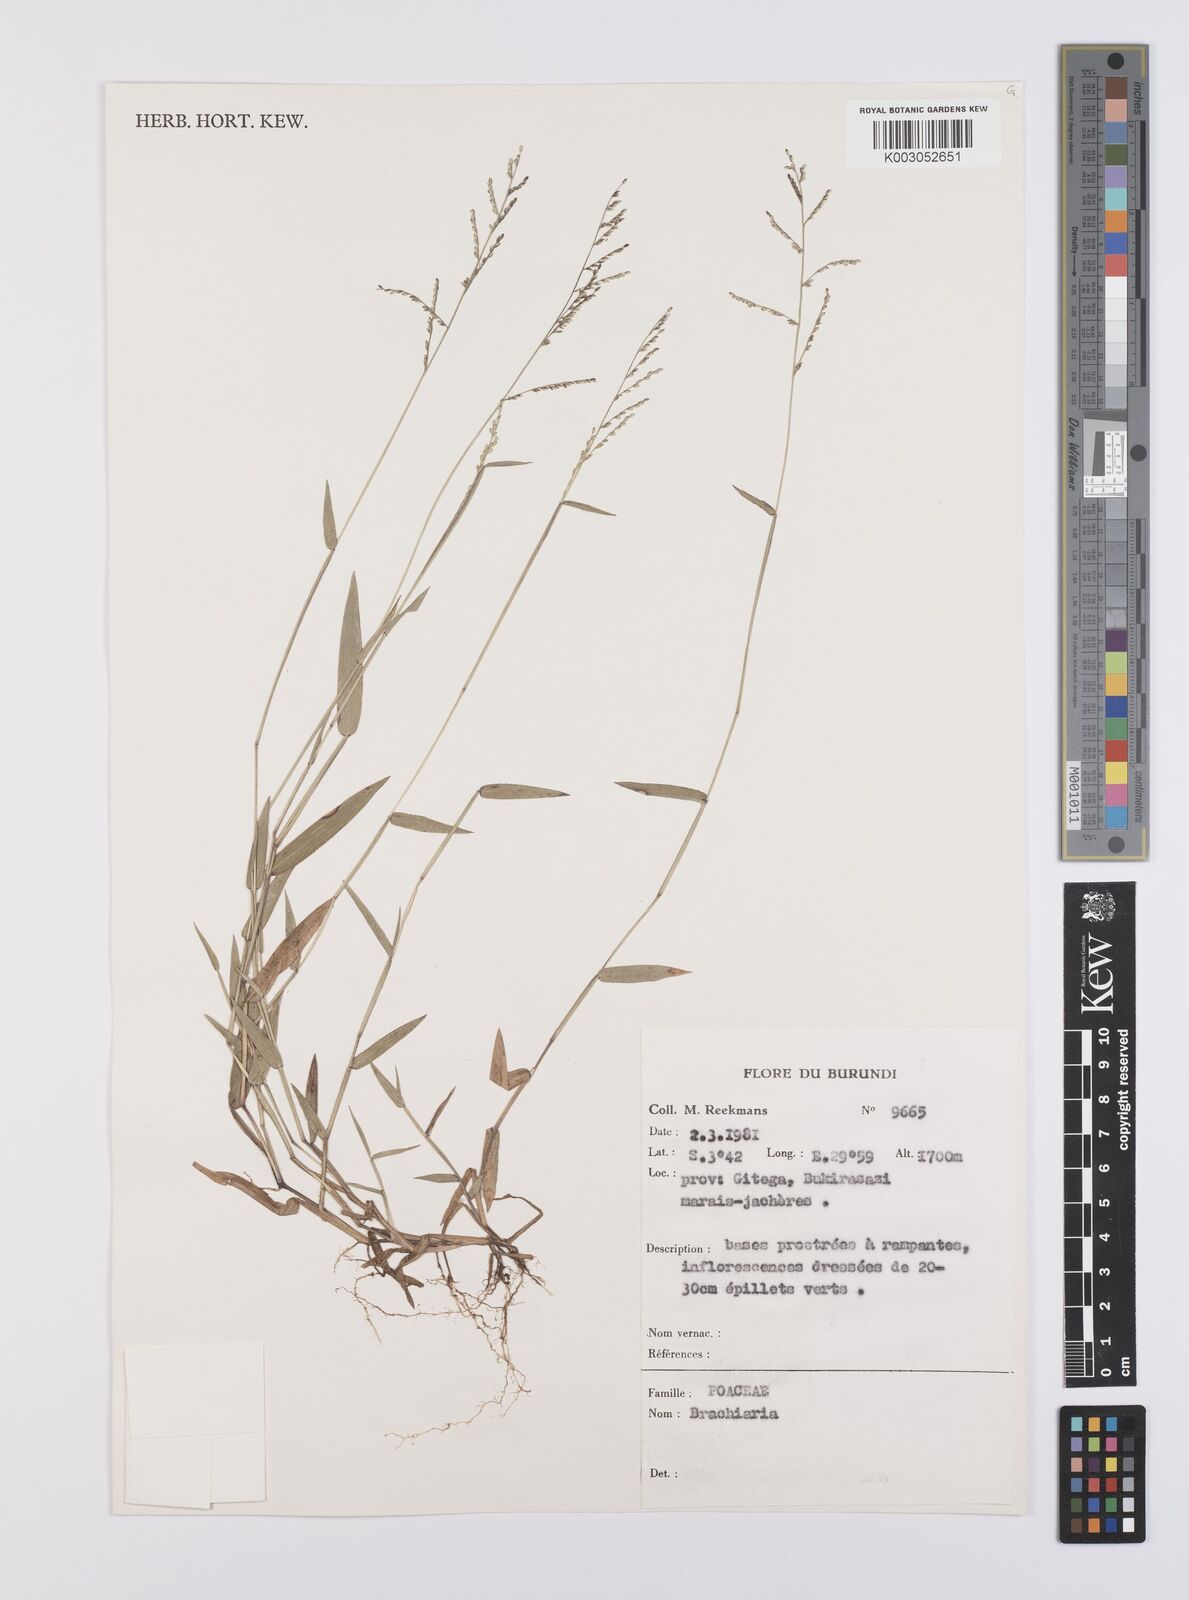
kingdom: Plantae
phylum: Tracheophyta
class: Liliopsida
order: Poales
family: Poaceae
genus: Urochloa
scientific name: Urochloa comata
